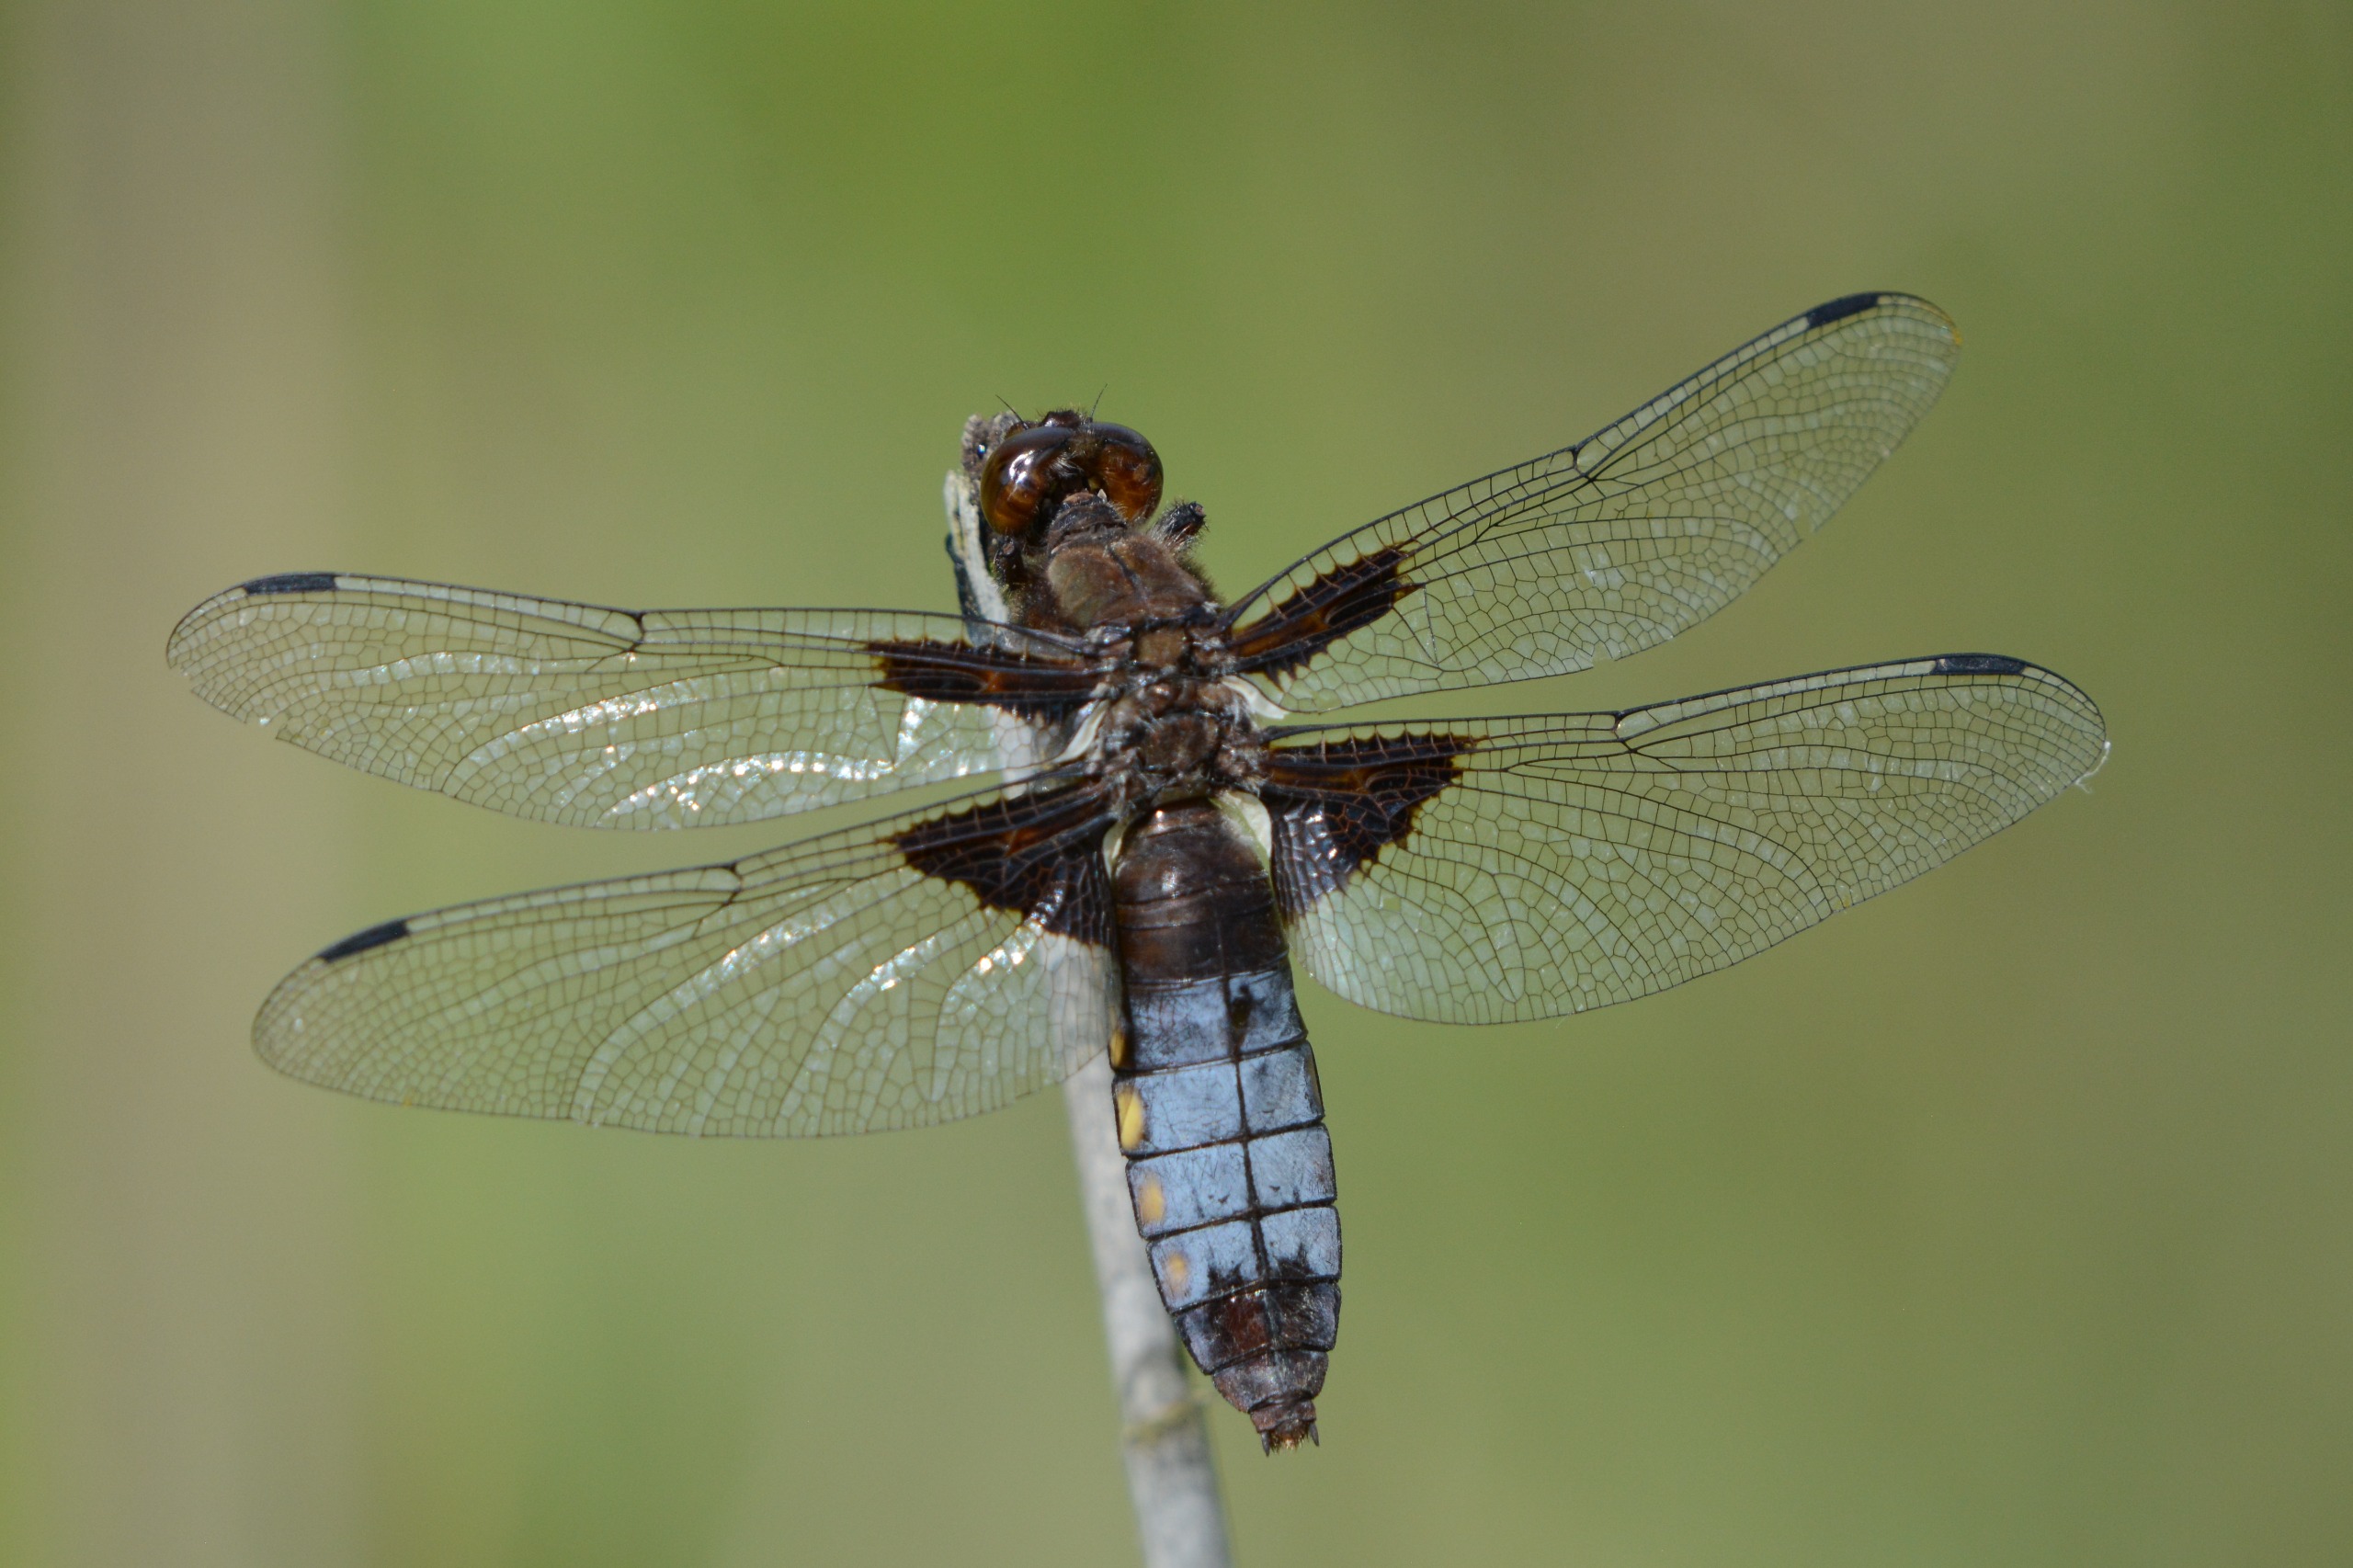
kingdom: Animalia
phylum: Arthropoda
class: Insecta
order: Odonata
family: Libellulidae
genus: Libellula
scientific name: Libellula depressa
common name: Blå libel
